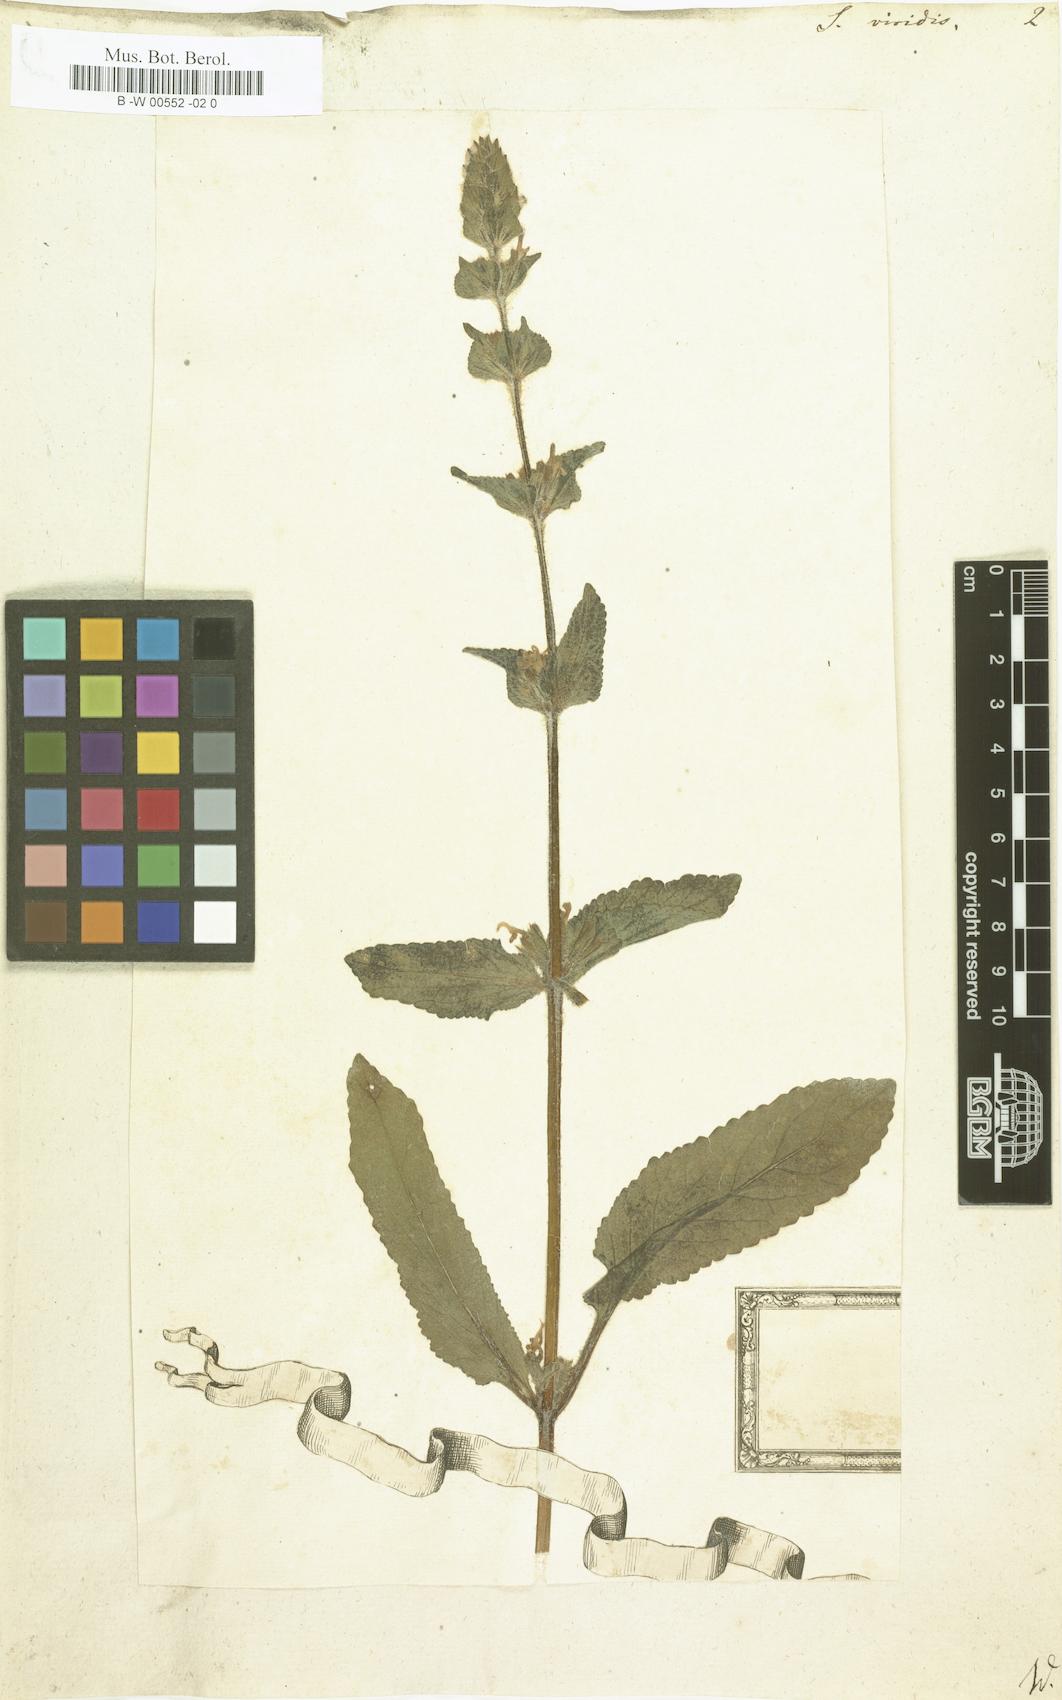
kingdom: Plantae
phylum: Tracheophyta
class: Magnoliopsida
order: Lamiales
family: Lamiaceae
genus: Salvia
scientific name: Salvia viridis
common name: Annual clary
